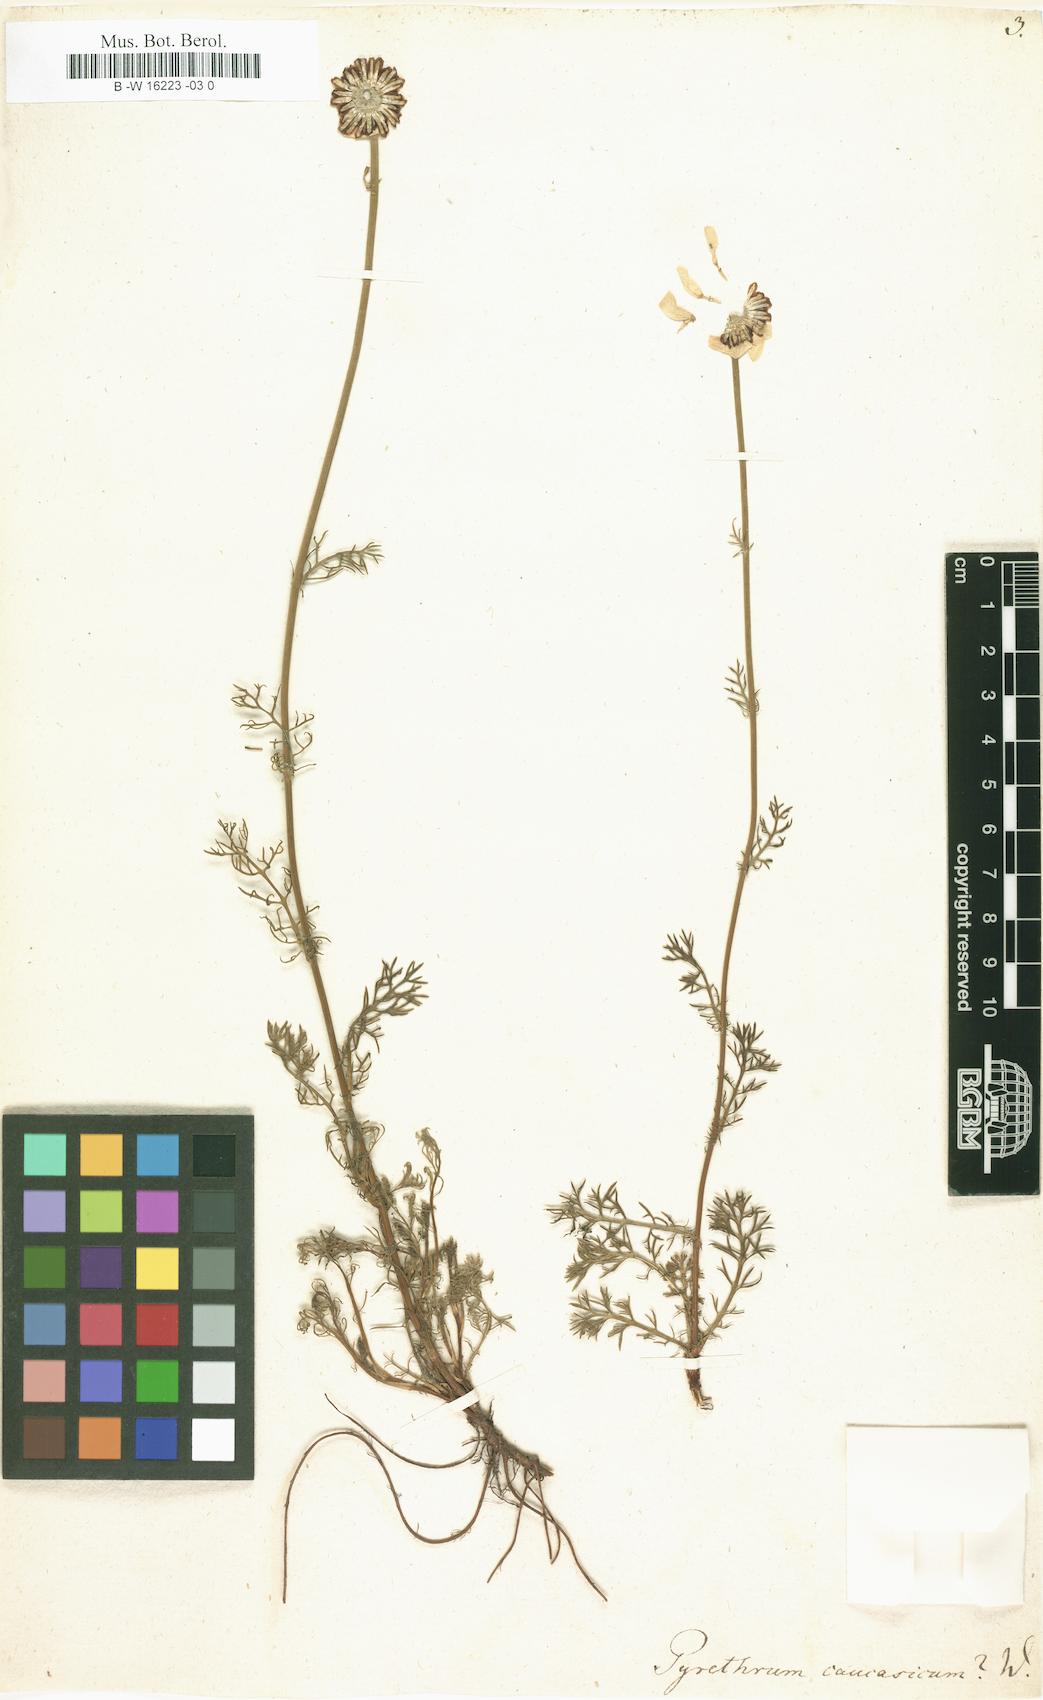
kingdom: Plantae
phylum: Tracheophyta
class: Magnoliopsida
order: Asterales
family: Asteraceae
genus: Tripleurospermum
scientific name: Tripleurospermum caucasicum
